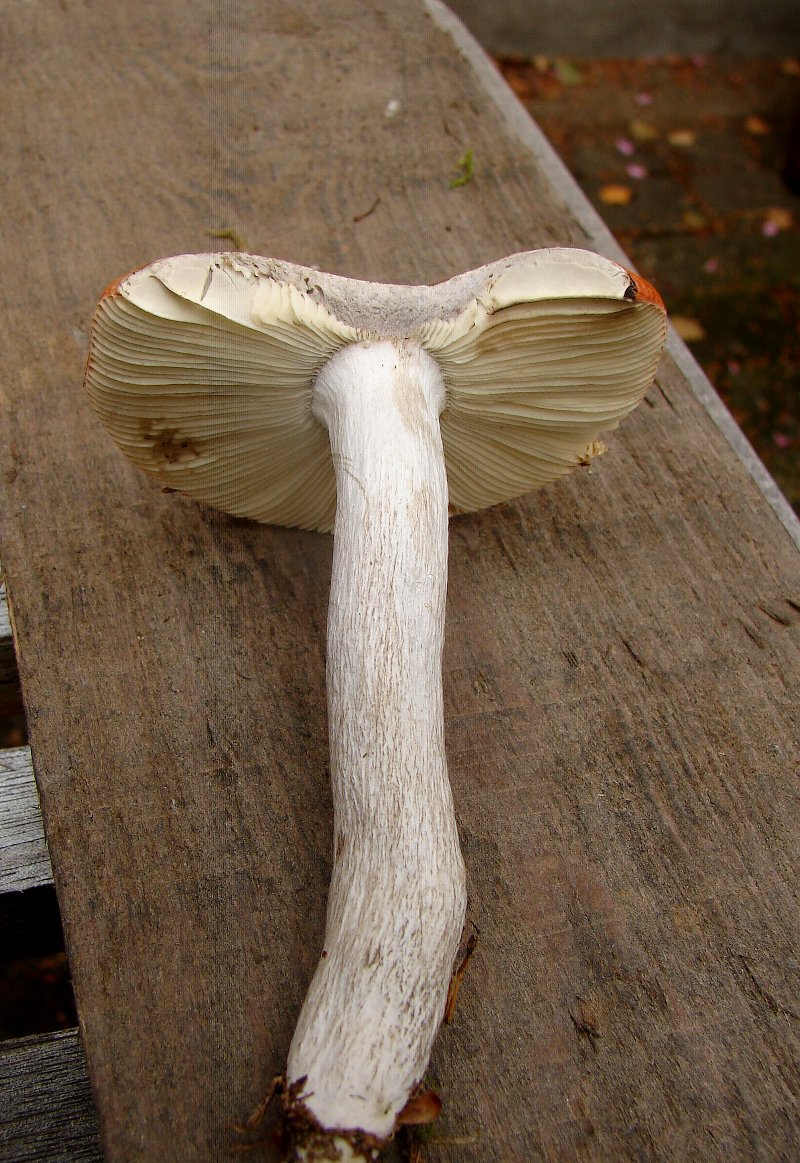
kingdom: Fungi
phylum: Basidiomycota
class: Agaricomycetes
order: Russulales
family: Russulaceae
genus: Russula
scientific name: Russula decolorans
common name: afblegende skørhat
